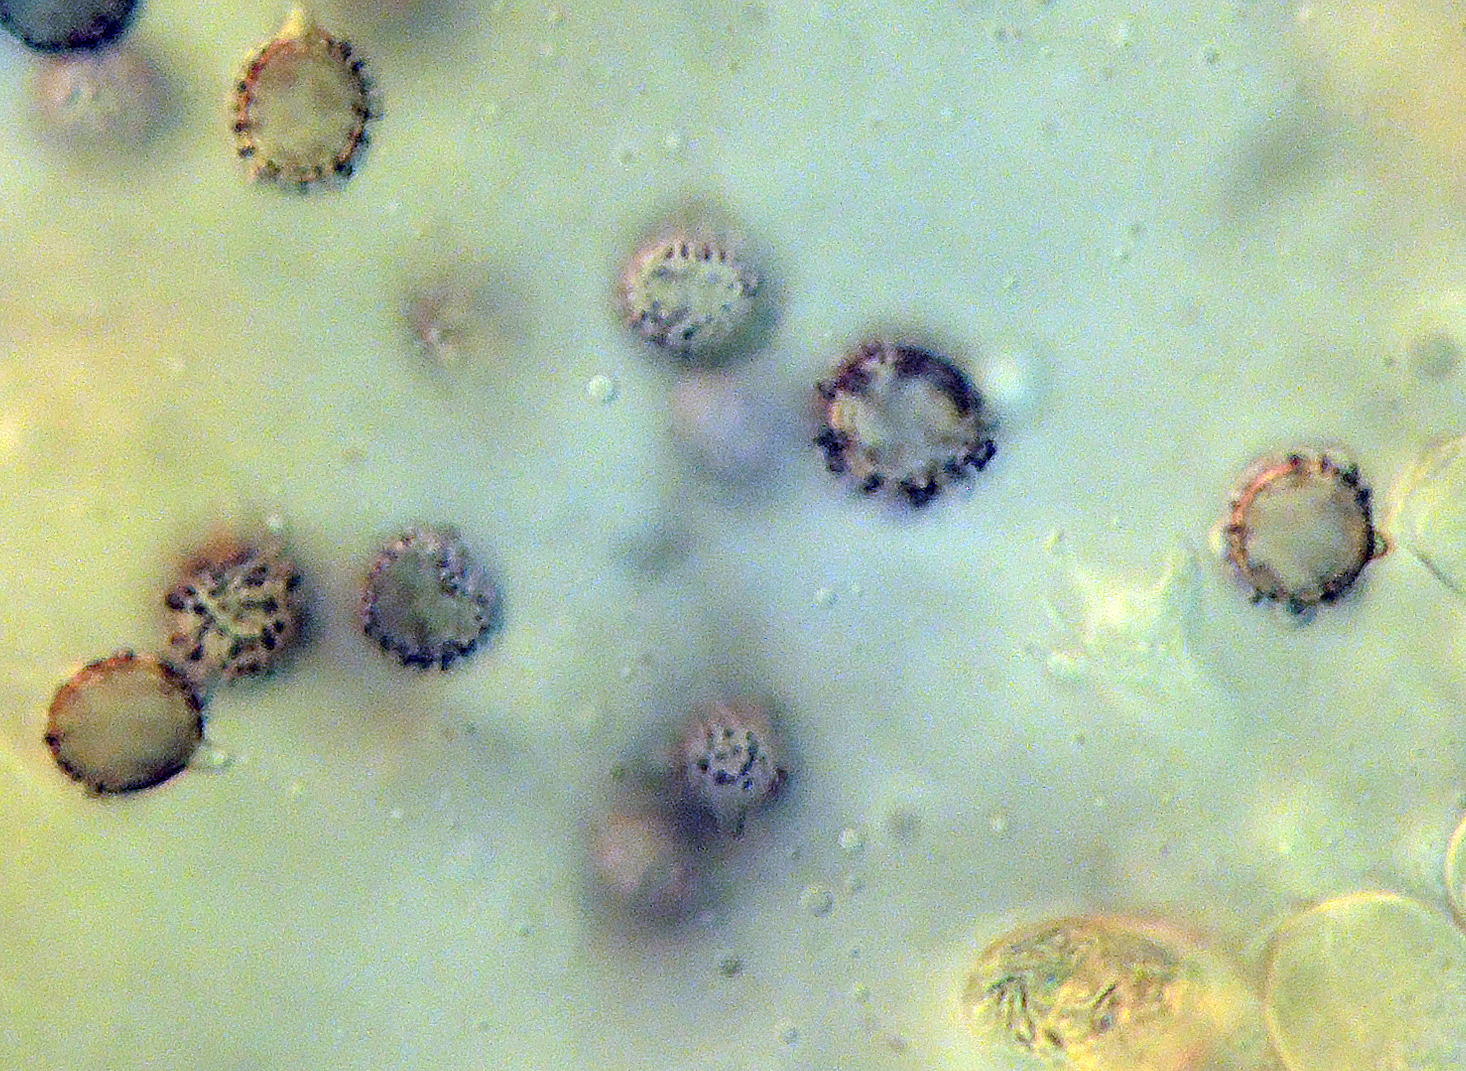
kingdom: Fungi
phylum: Basidiomycota
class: Agaricomycetes
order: Russulales
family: Russulaceae
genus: Russula
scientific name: Russula intermedia
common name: orange skørhat
